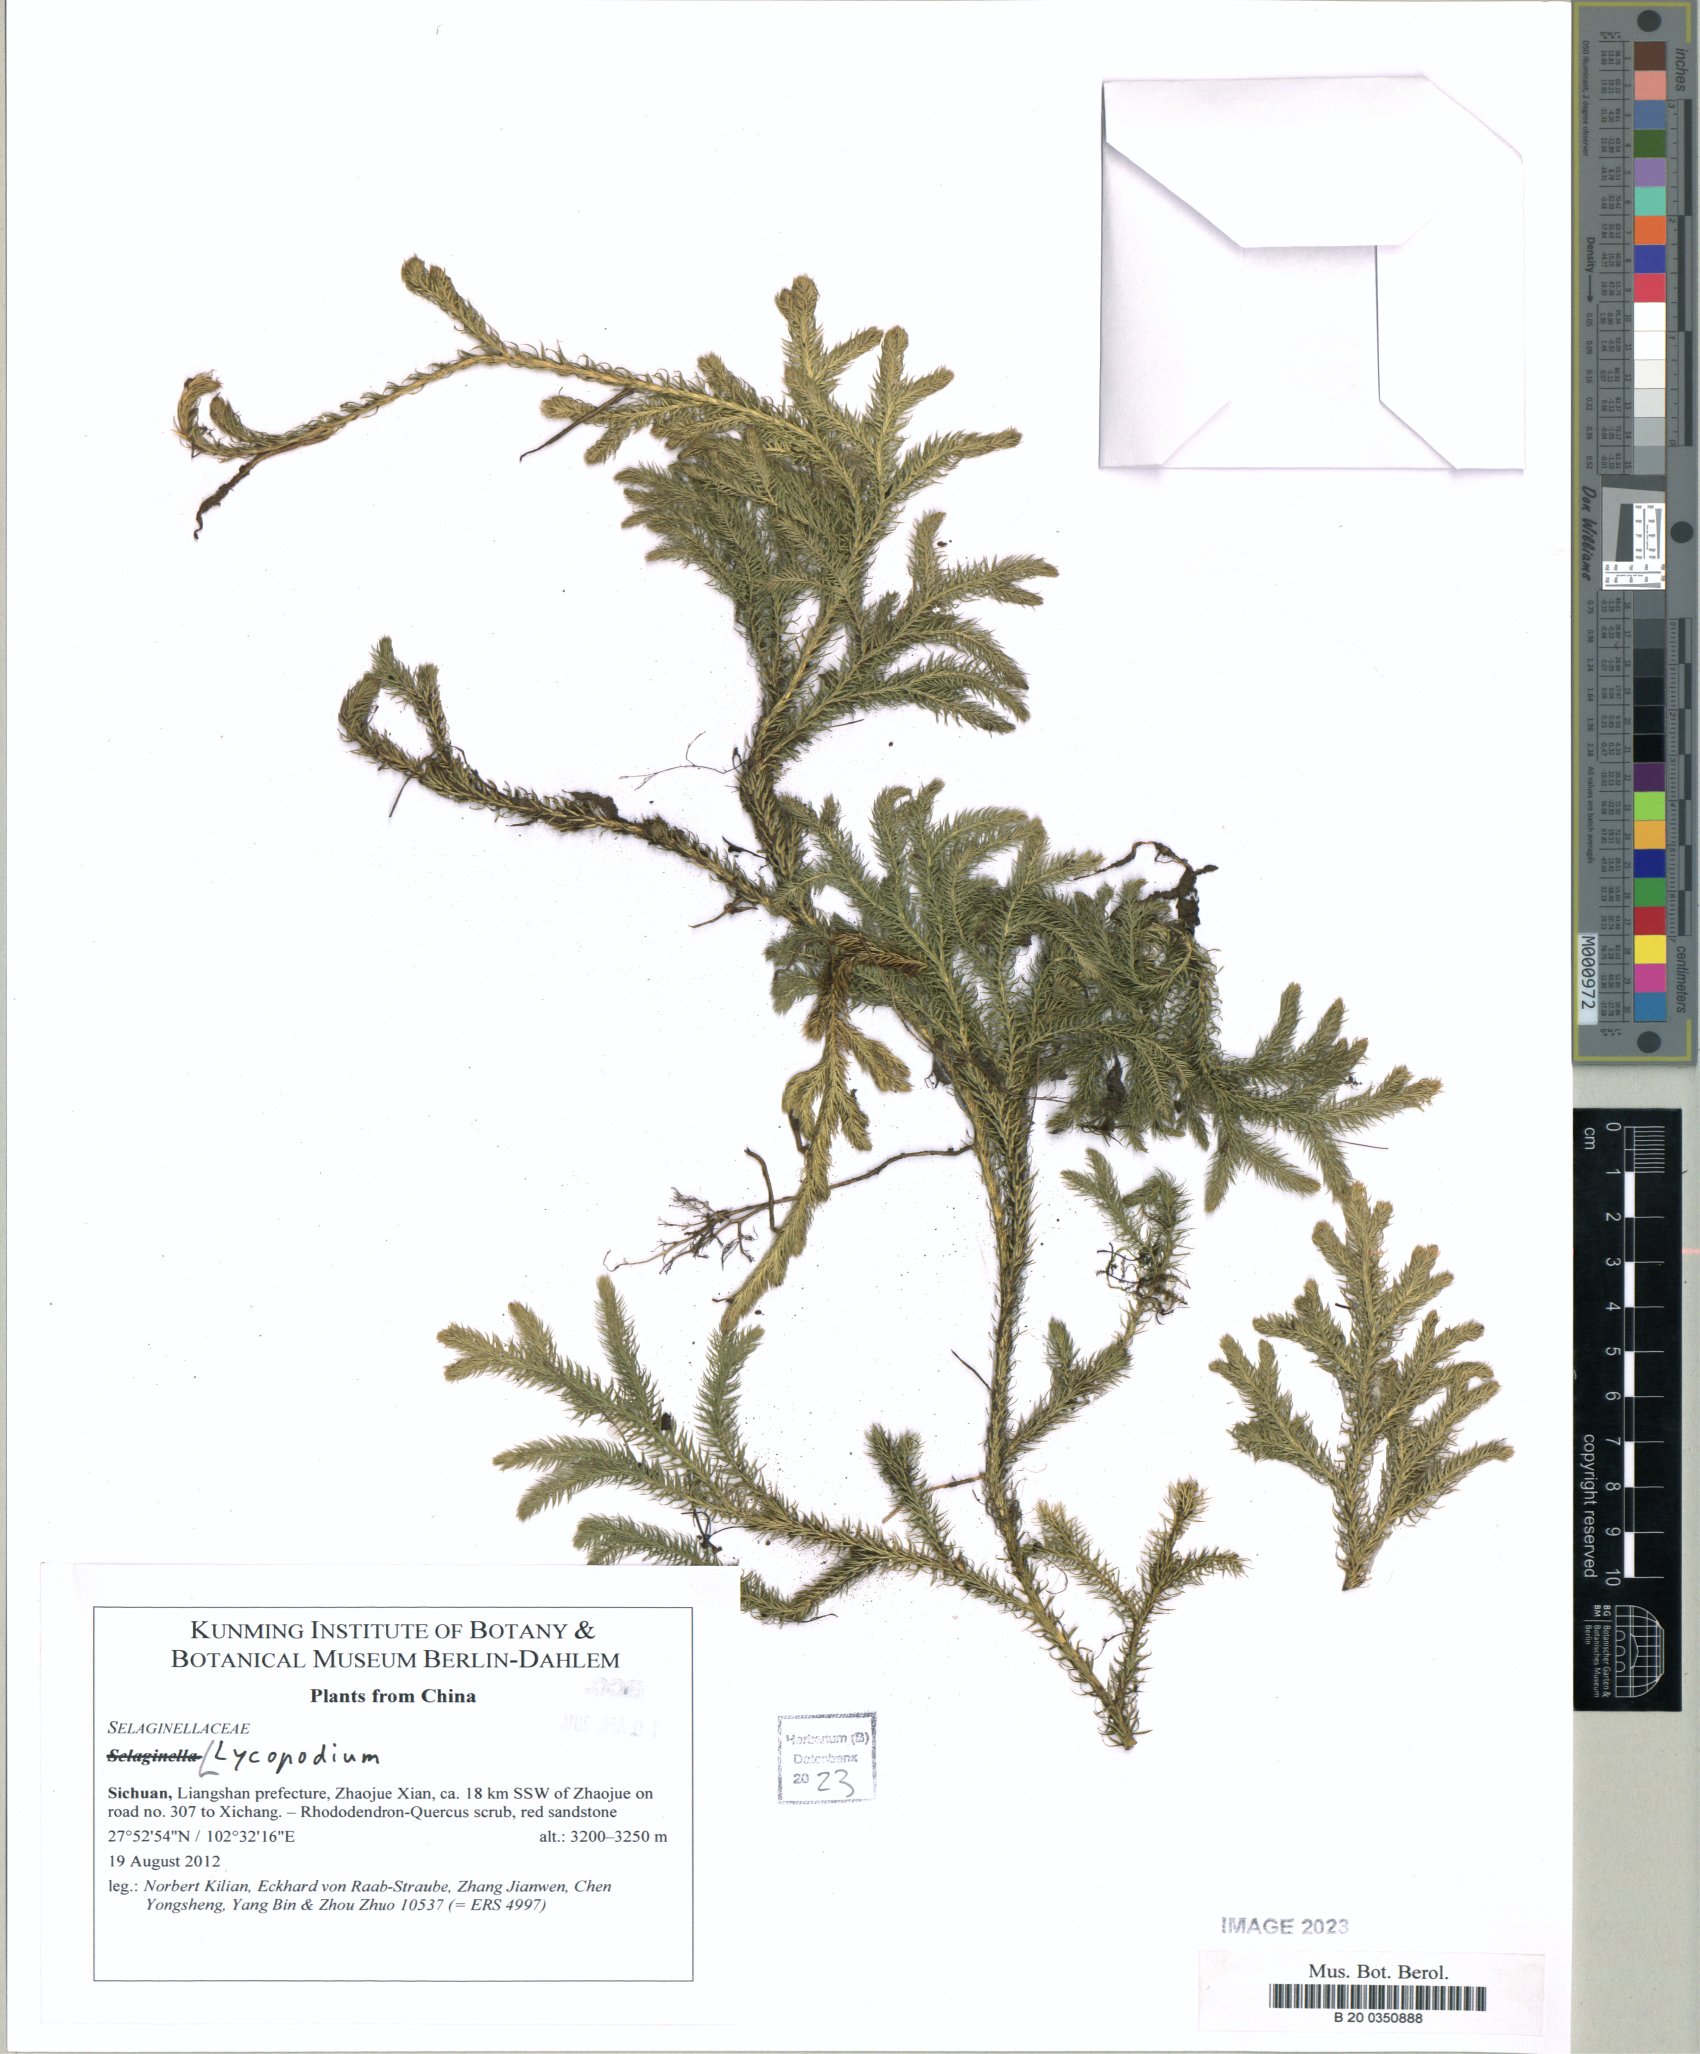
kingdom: Plantae
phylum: Tracheophyta
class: Lycopodiopsida
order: Lycopodiales
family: Lycopodiaceae
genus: Lycopodium
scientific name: Lycopodium
